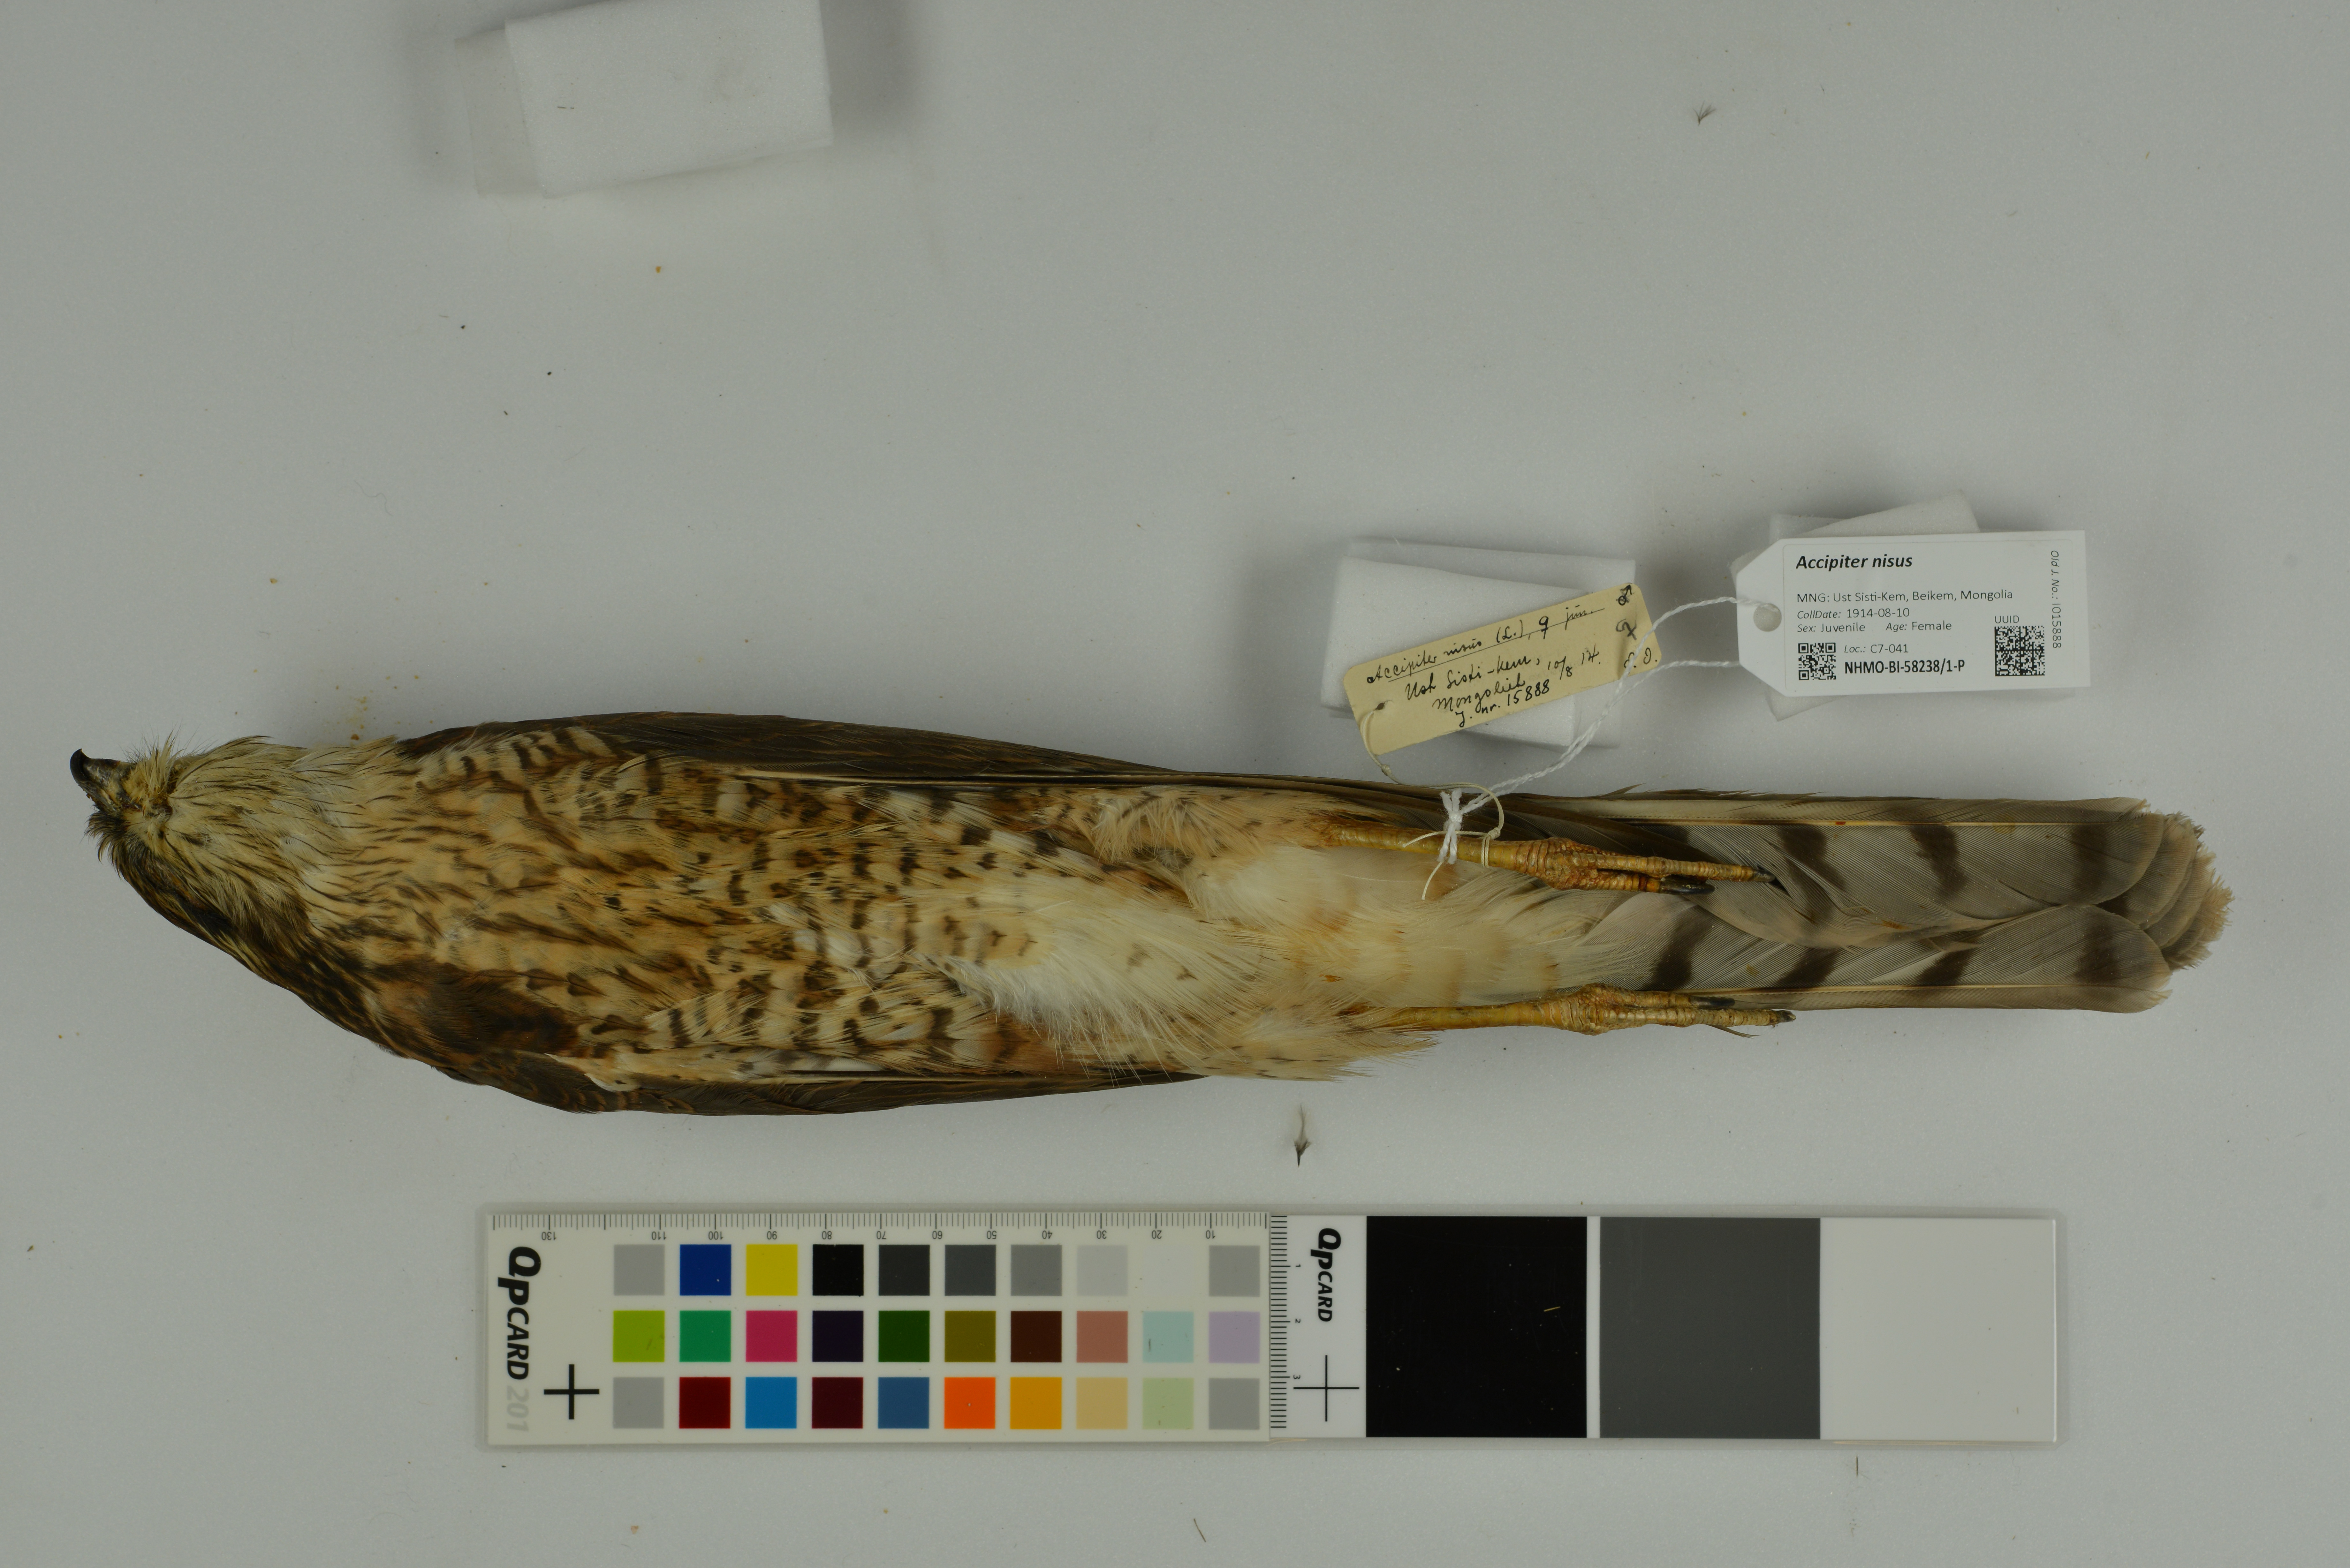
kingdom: Animalia
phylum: Chordata
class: Aves
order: Accipitriformes
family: Accipitridae
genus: Accipiter
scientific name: Accipiter nisus
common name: Eurasian sparrowhawk
